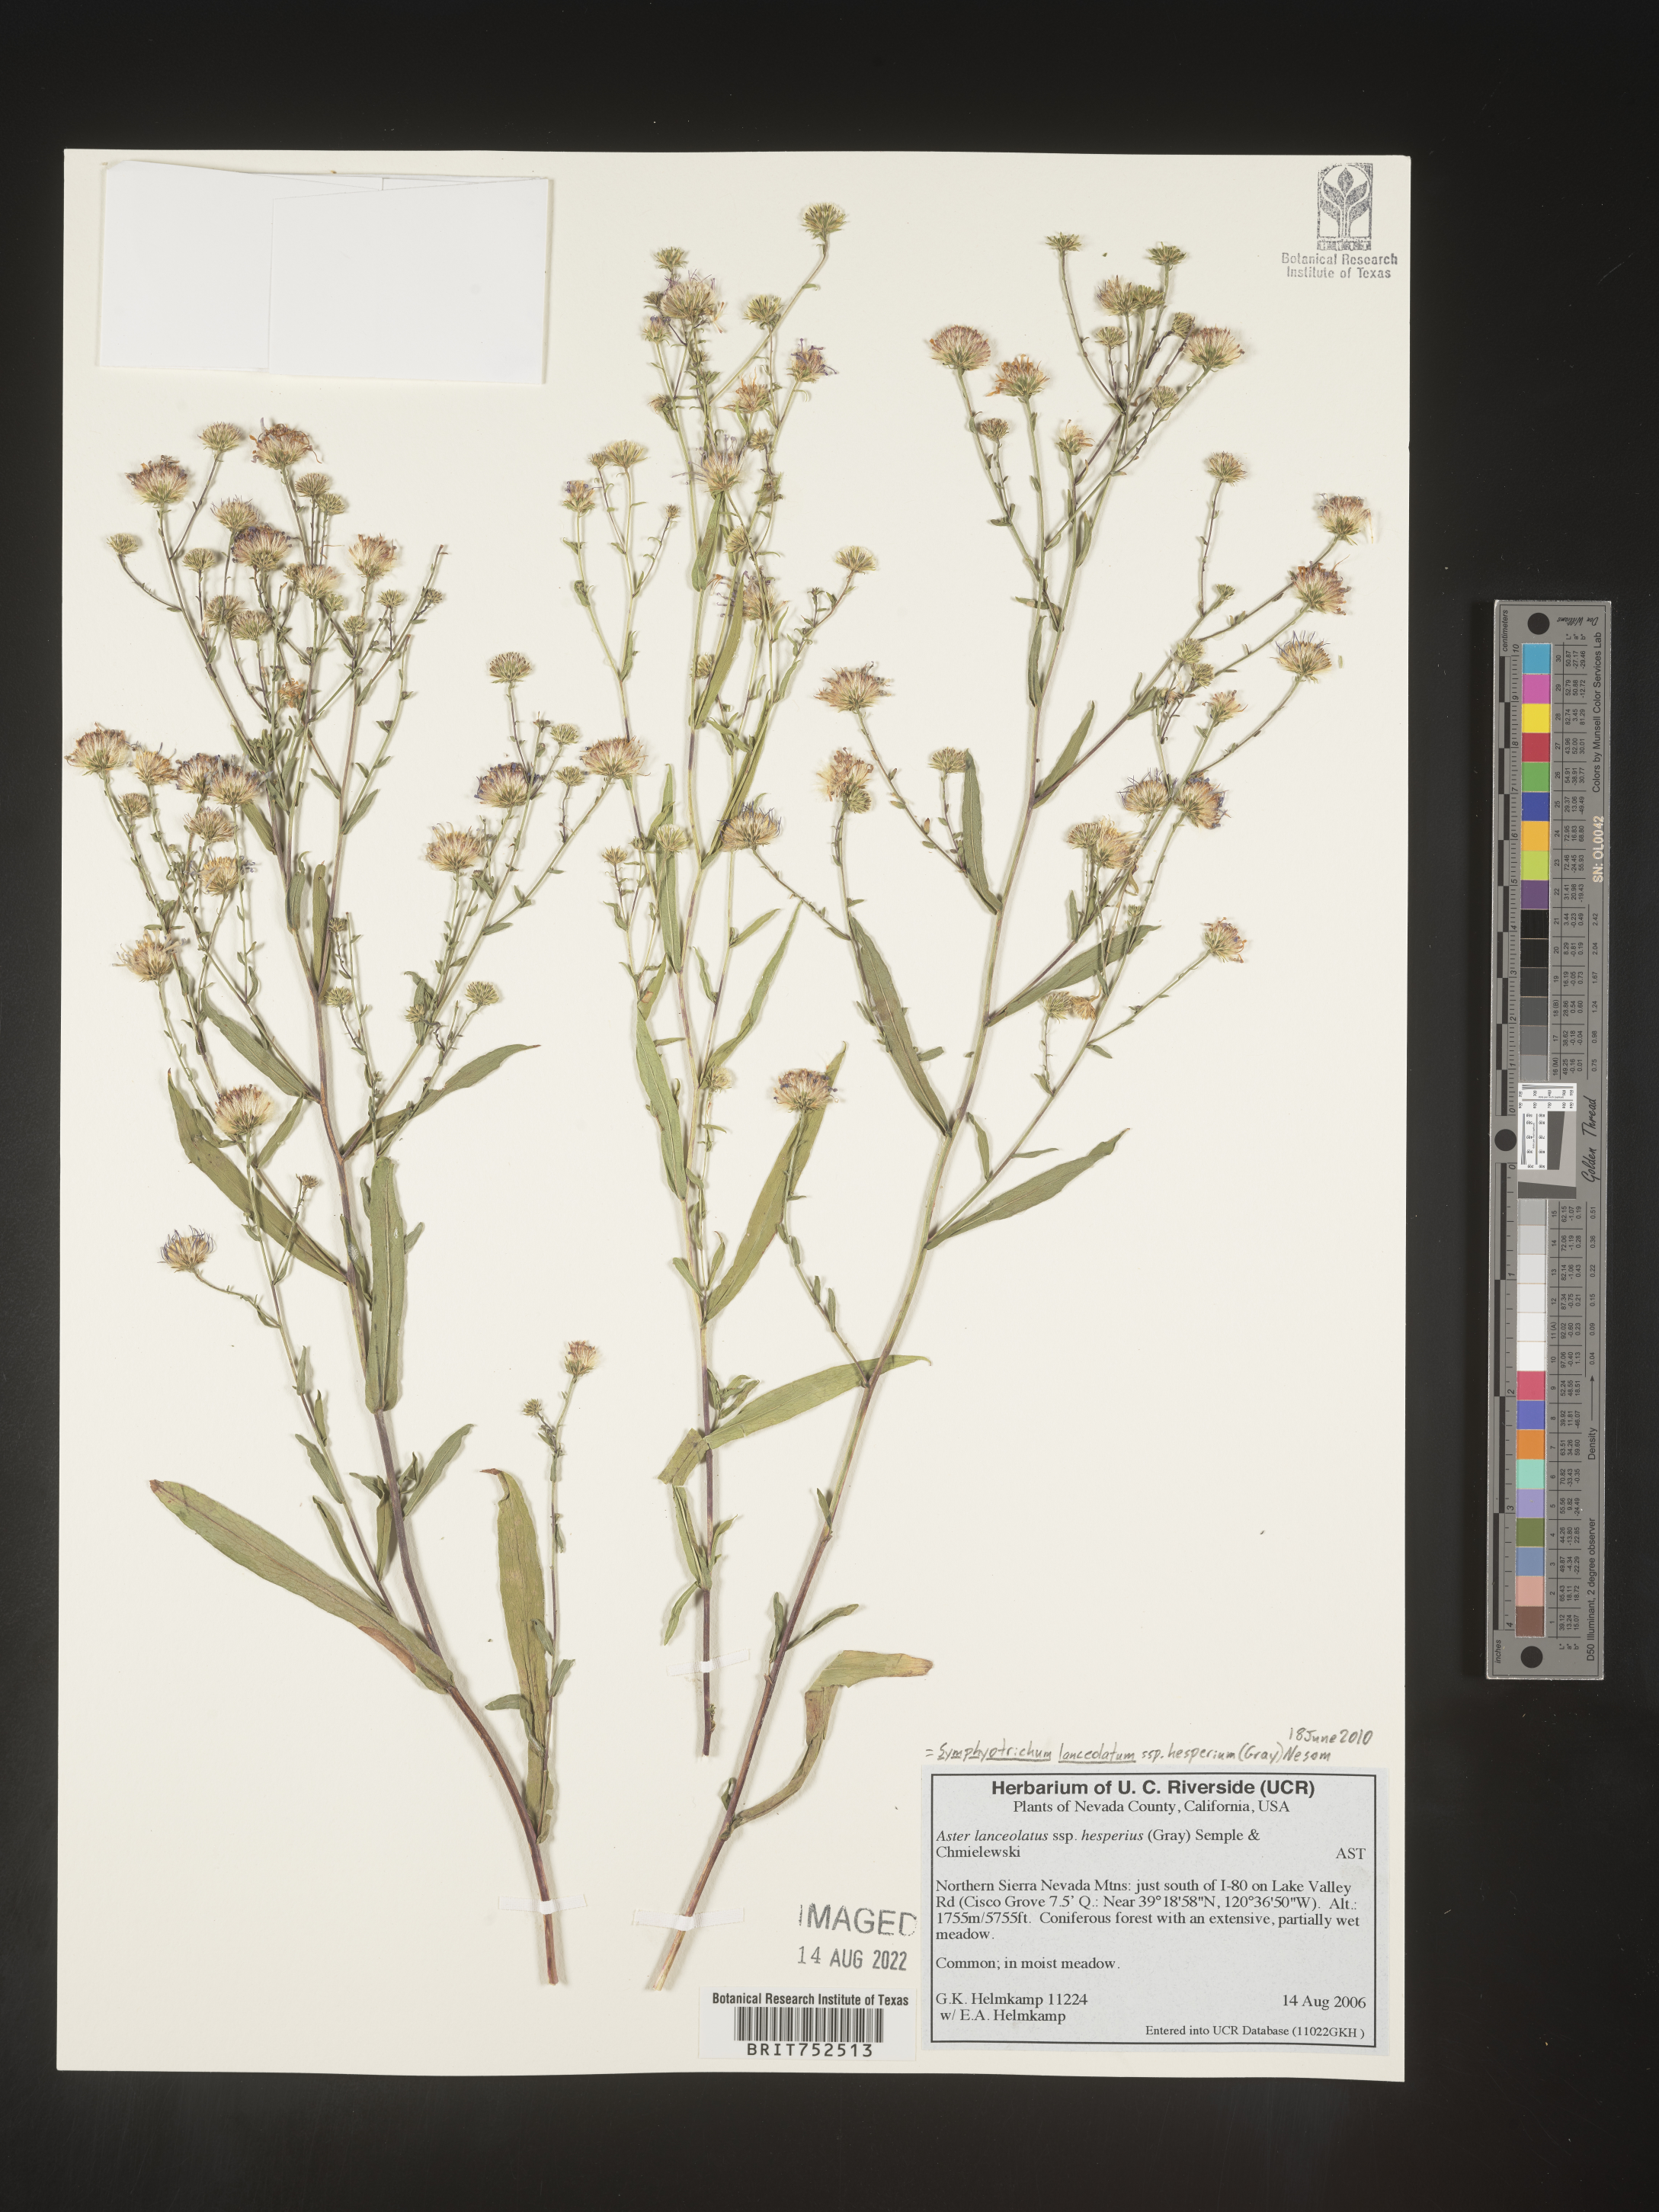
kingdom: Plantae
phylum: Tracheophyta
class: Magnoliopsida
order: Asterales
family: Asteraceae
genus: Symphyotrichum
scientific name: Symphyotrichum lanceolatum
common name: Panicled aster
